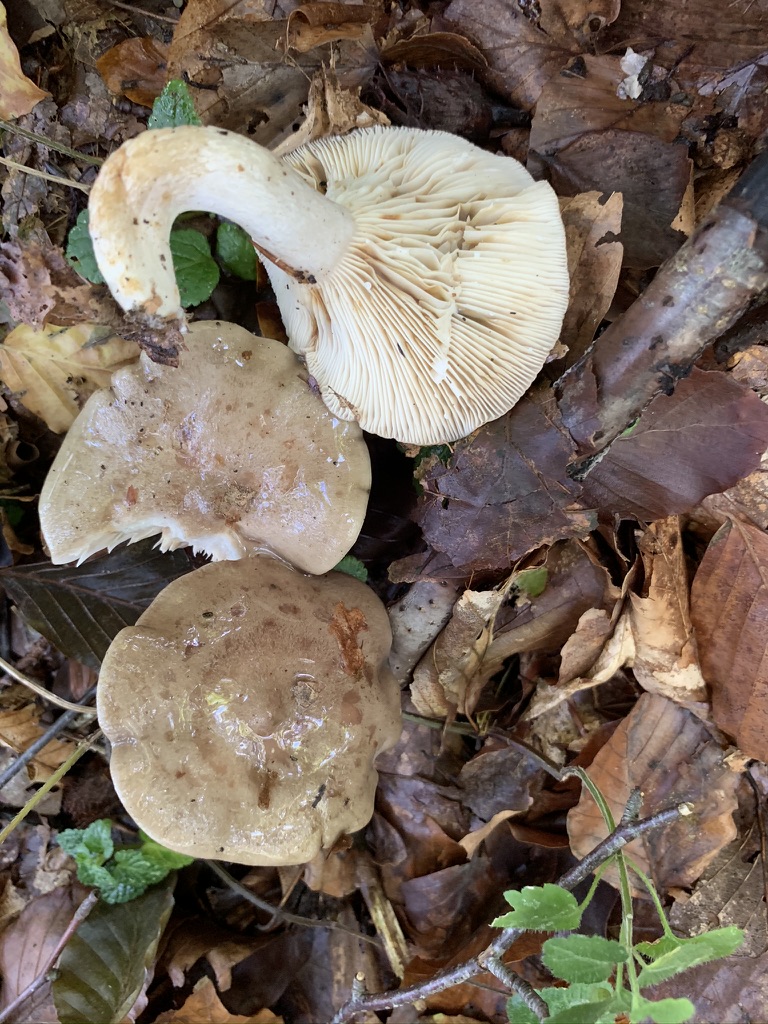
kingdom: Fungi
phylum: Basidiomycota
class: Agaricomycetes
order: Russulales
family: Russulaceae
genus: Lactarius
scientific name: Lactarius blennius
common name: dråbeplettet mælkehat
